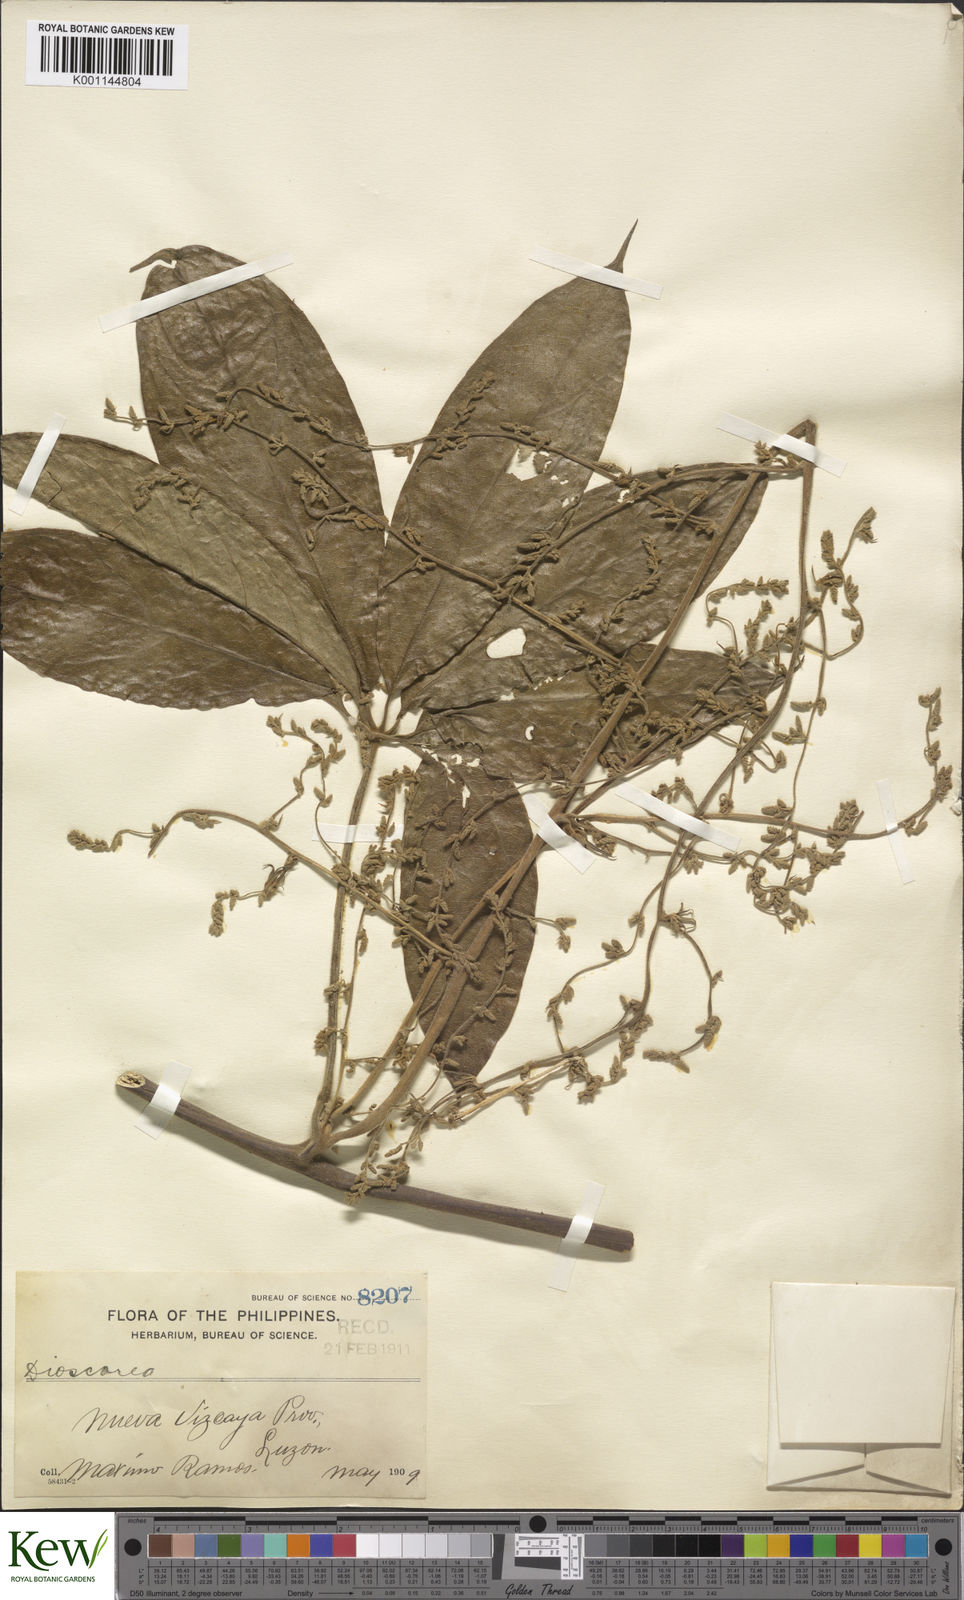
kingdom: Plantae
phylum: Tracheophyta
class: Liliopsida
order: Dioscoreales
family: Dioscoreaceae
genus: Dioscorea
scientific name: Dioscorea cumingii
